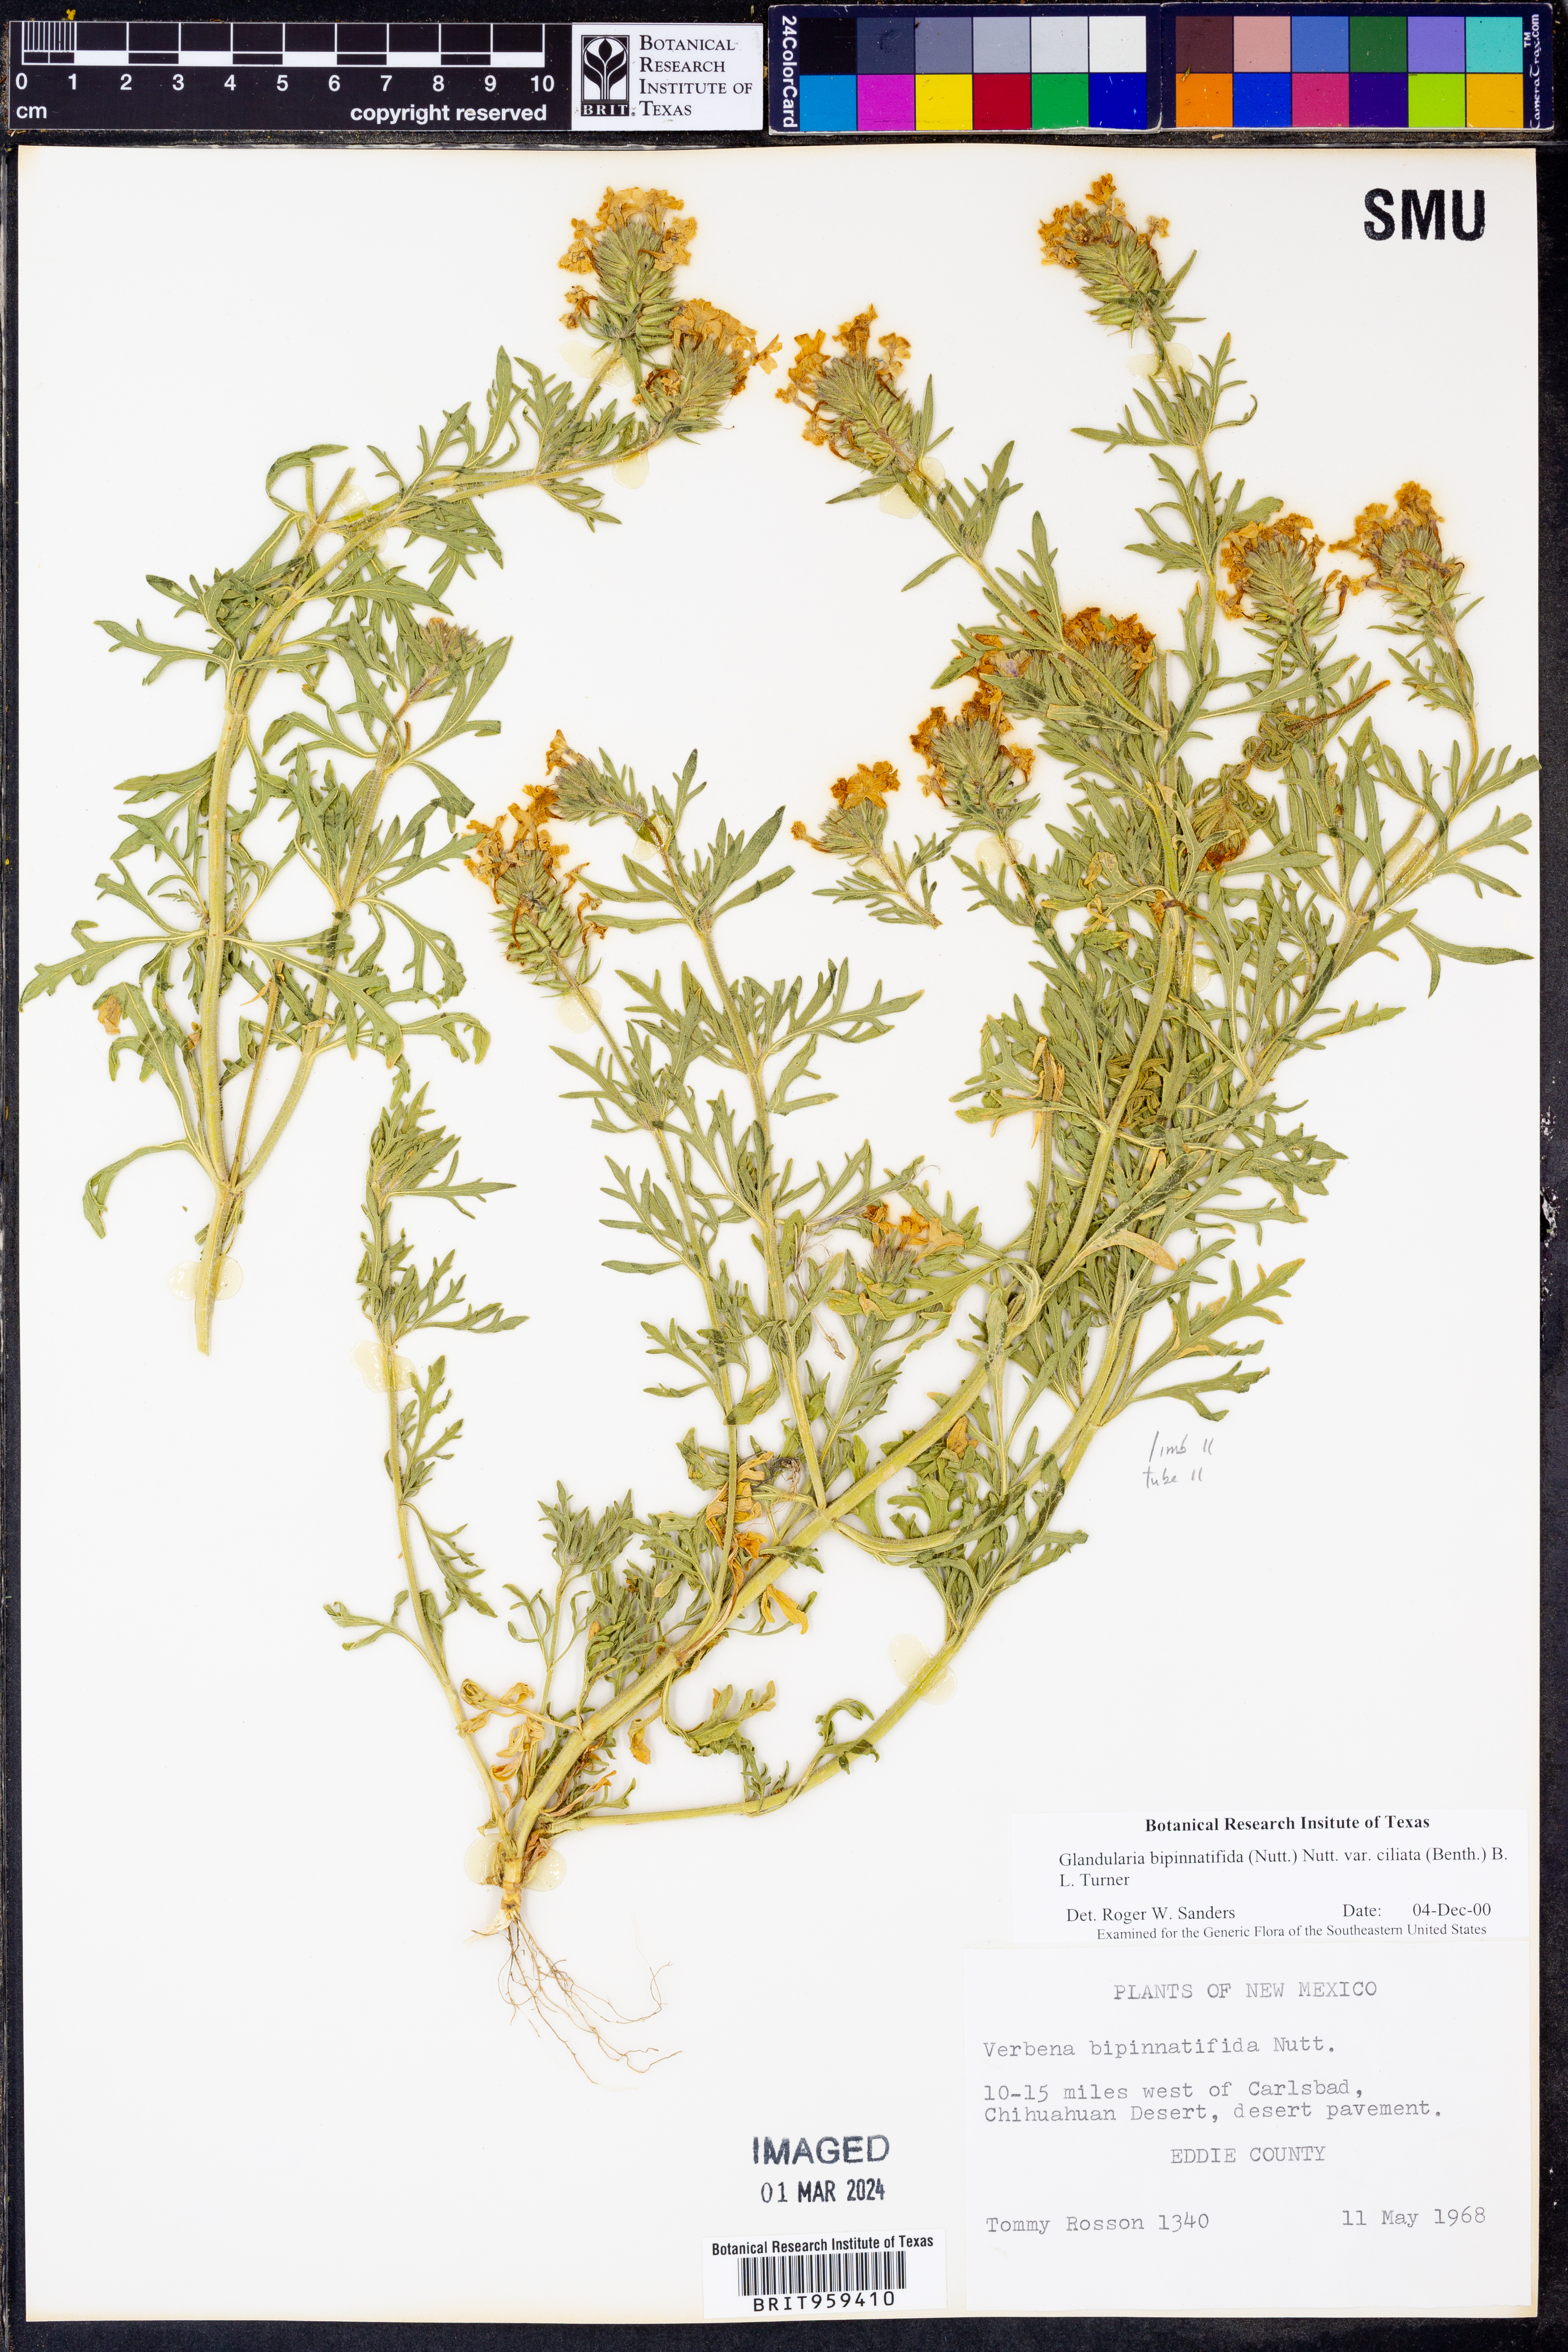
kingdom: Plantae
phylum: Tracheophyta
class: Magnoliopsida
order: Lamiales
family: Verbenaceae
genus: Verbena
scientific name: Verbena bipinnatifida
